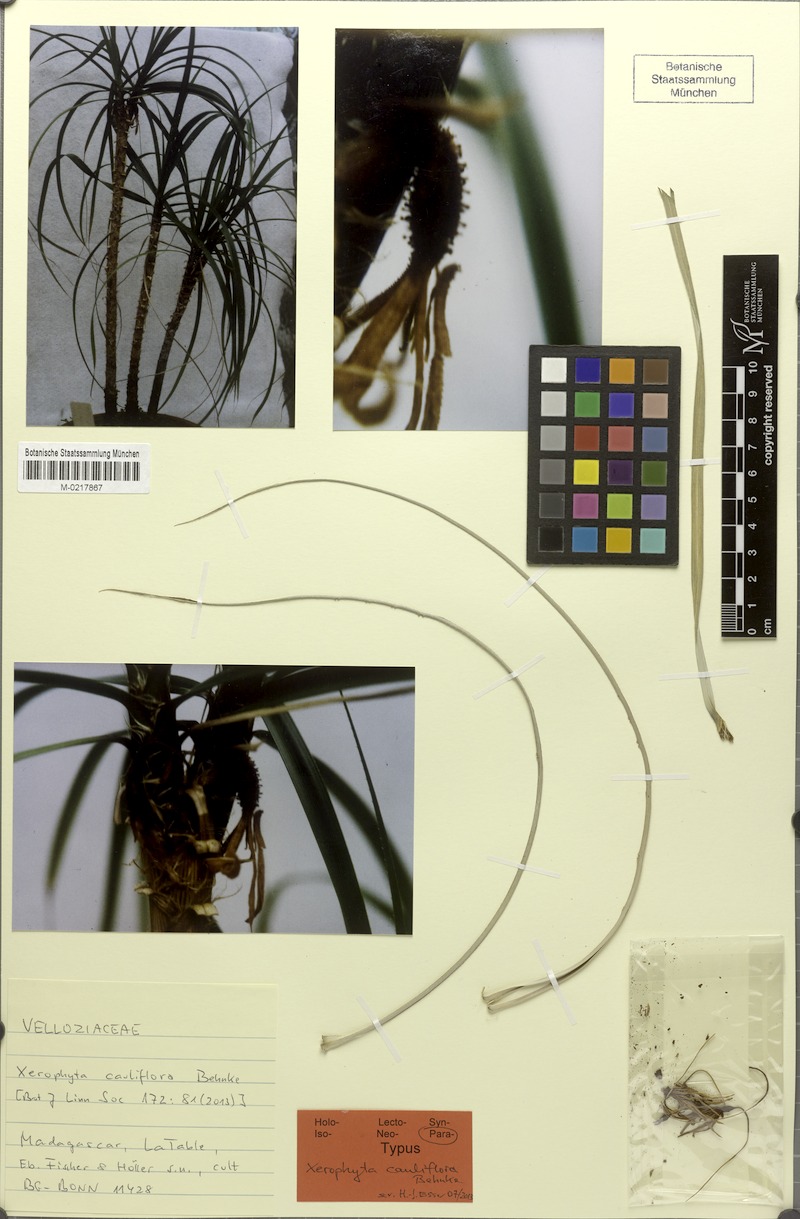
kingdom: Plantae
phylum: Tracheophyta
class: Liliopsida
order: Pandanales
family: Velloziaceae
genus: Xerophyta
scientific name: Xerophyta cauliflora
